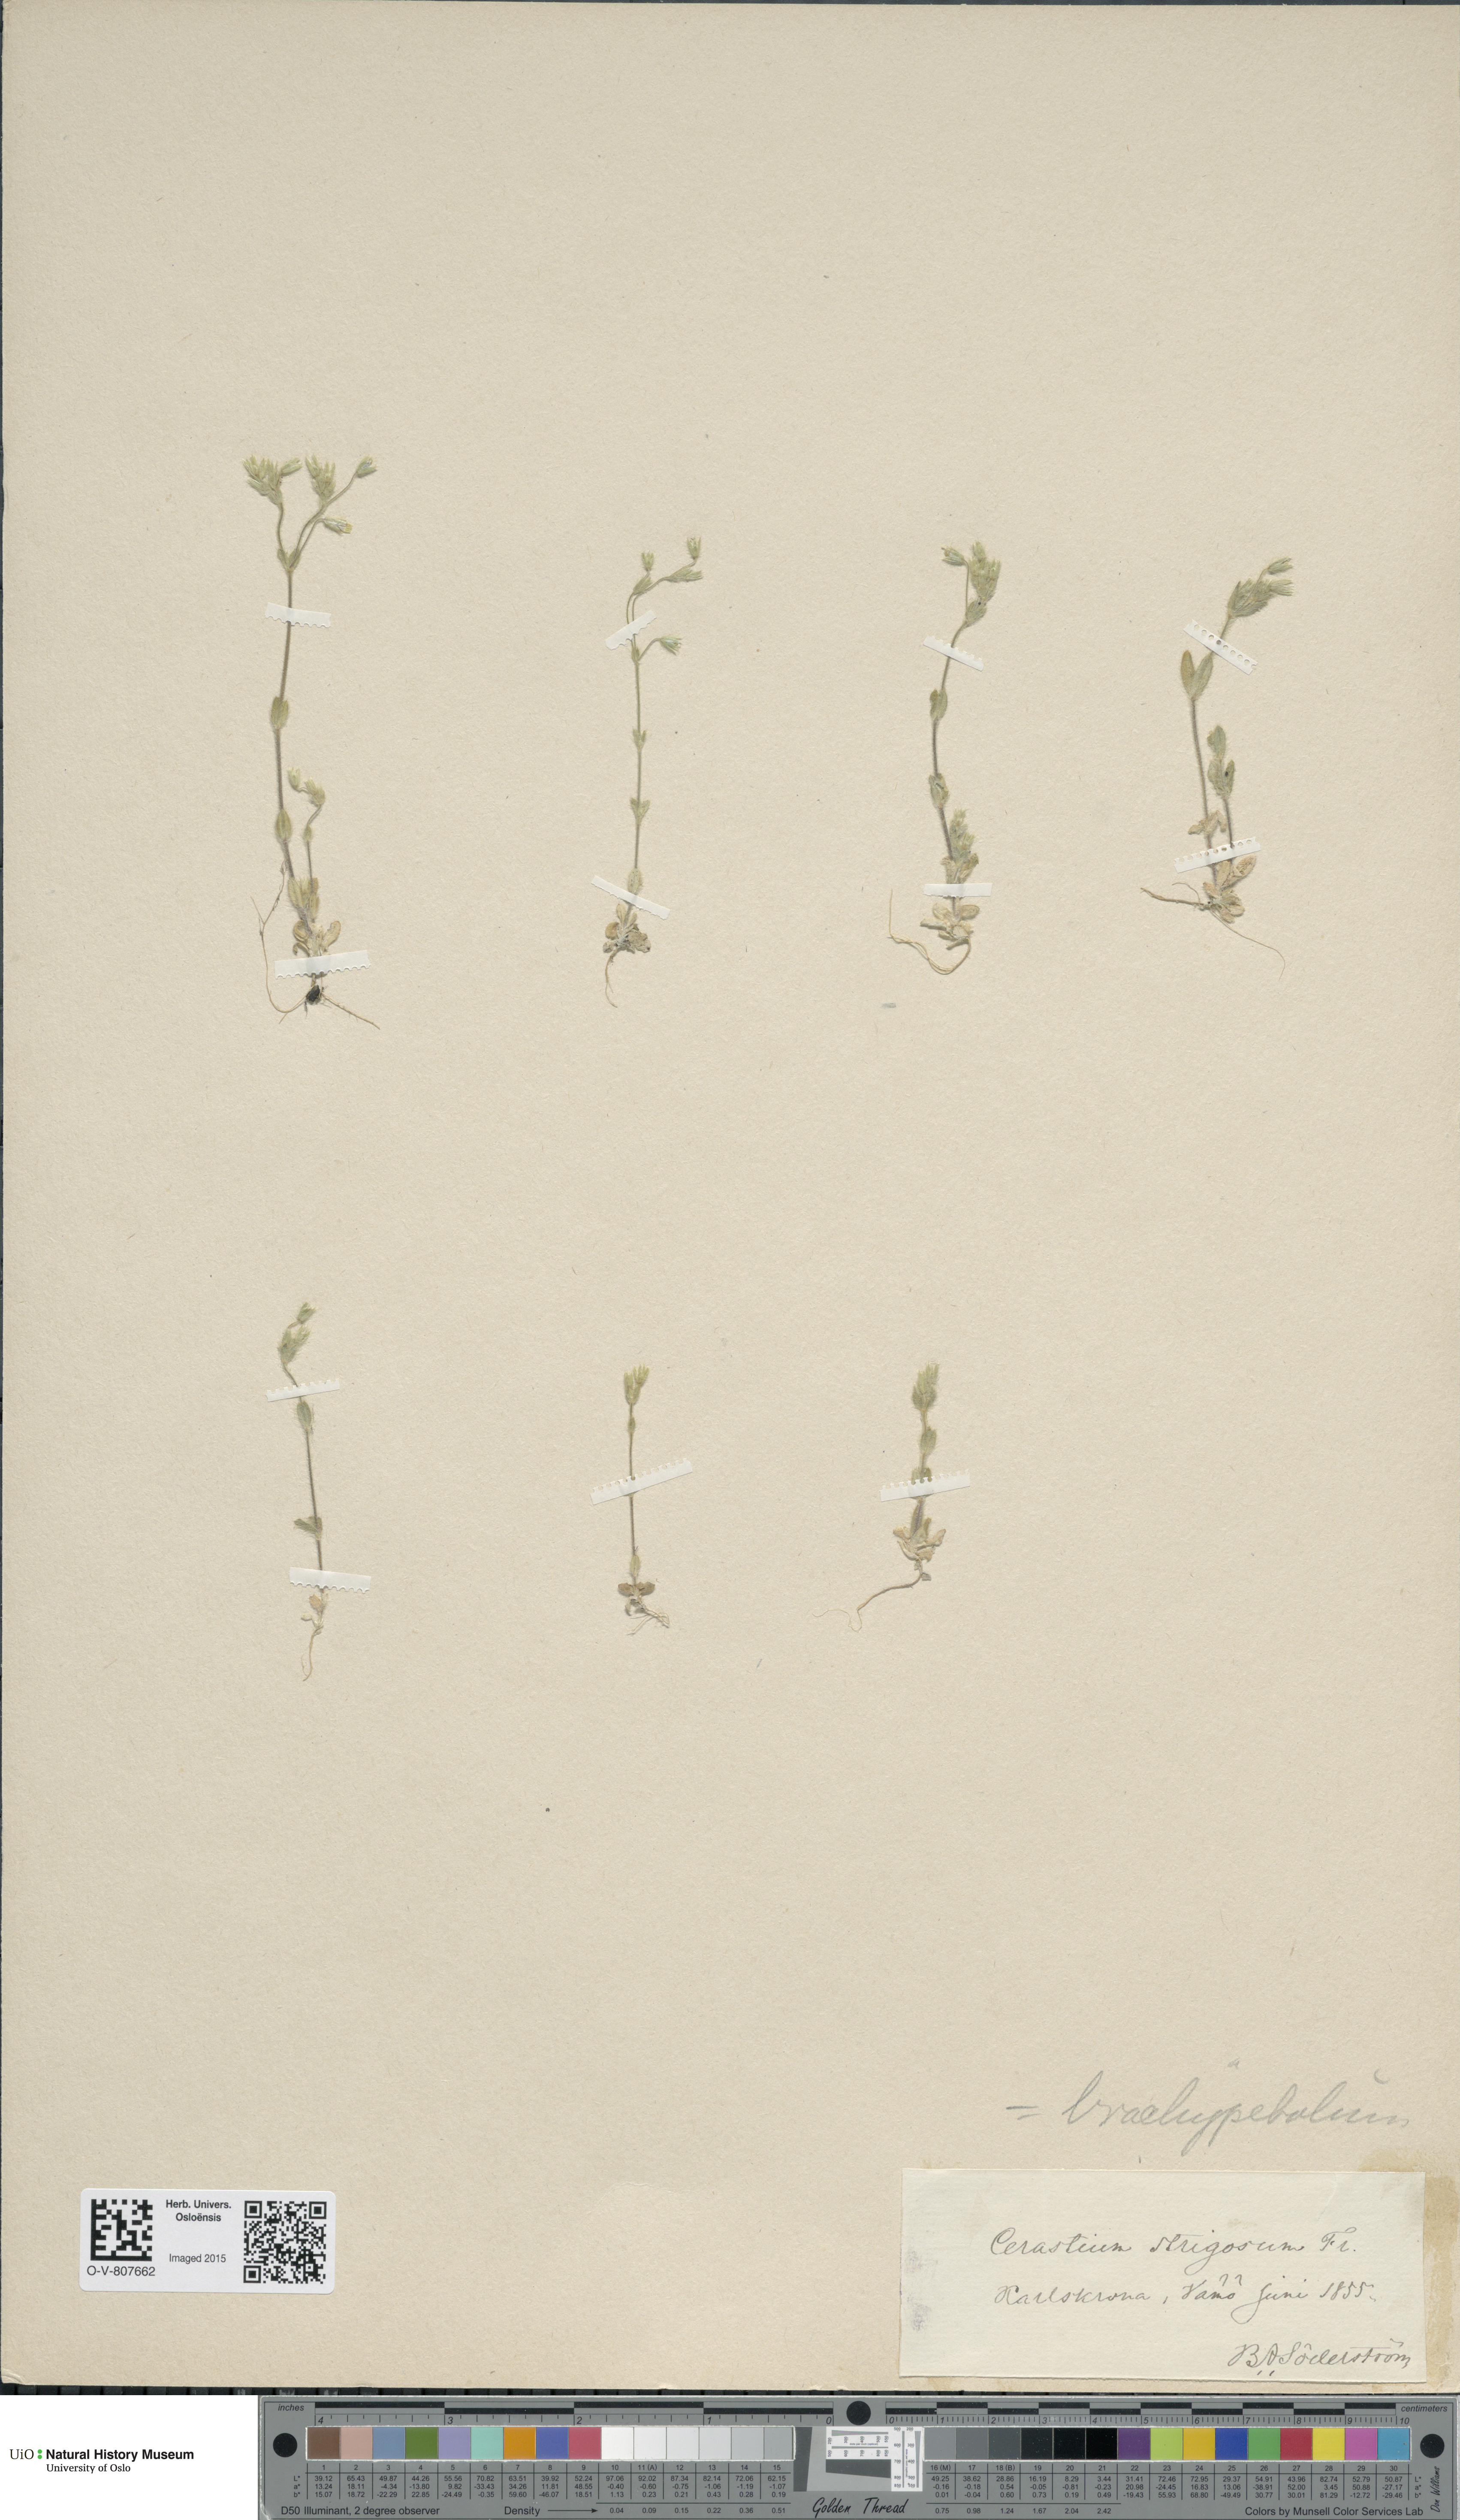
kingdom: Plantae
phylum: Tracheophyta
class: Magnoliopsida
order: Caryophyllales
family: Caryophyllaceae
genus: Cerastium
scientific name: Cerastium brachypetalum
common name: Grey mouse-ear
